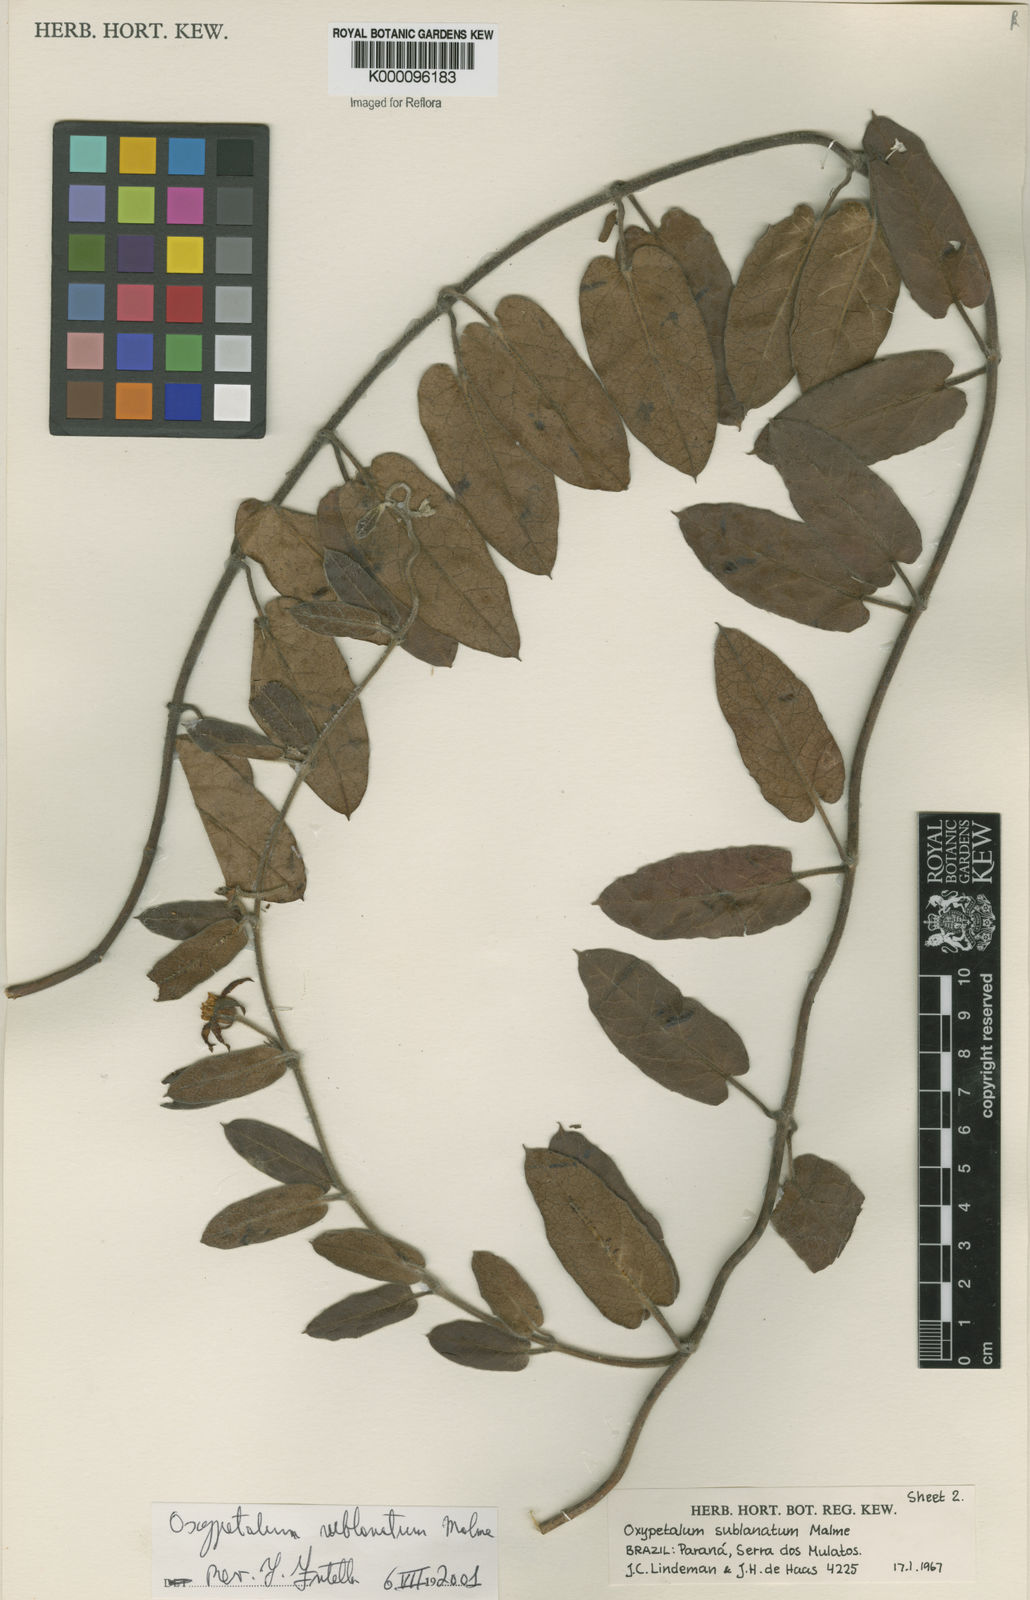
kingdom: Plantae
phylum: Tracheophyta
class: Magnoliopsida
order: Gentianales
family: Apocynaceae
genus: Oxypetalum
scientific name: Oxypetalum sublanatum
